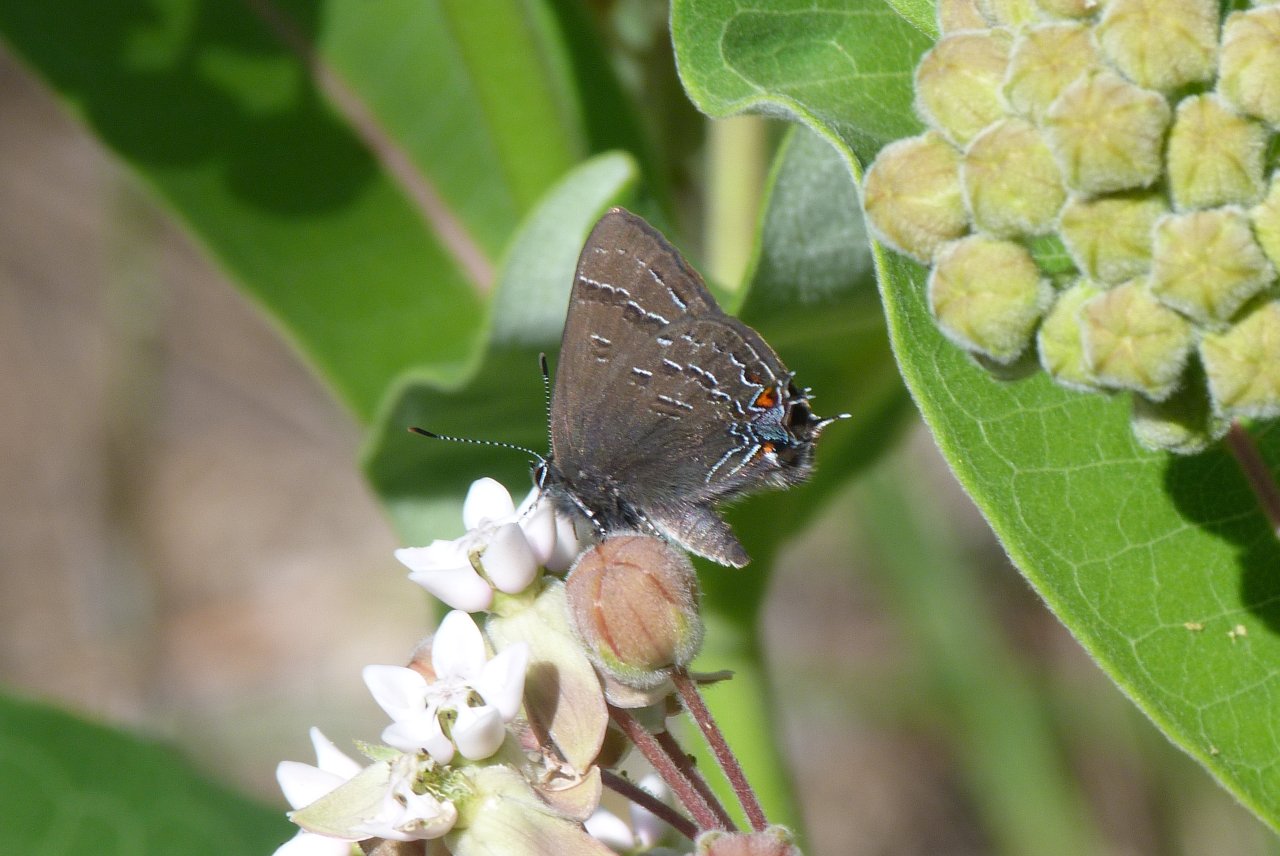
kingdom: Animalia
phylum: Arthropoda
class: Insecta
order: Lepidoptera
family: Lycaenidae
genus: Satyrium
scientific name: Satyrium calanus
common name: Banded Hairstreak
